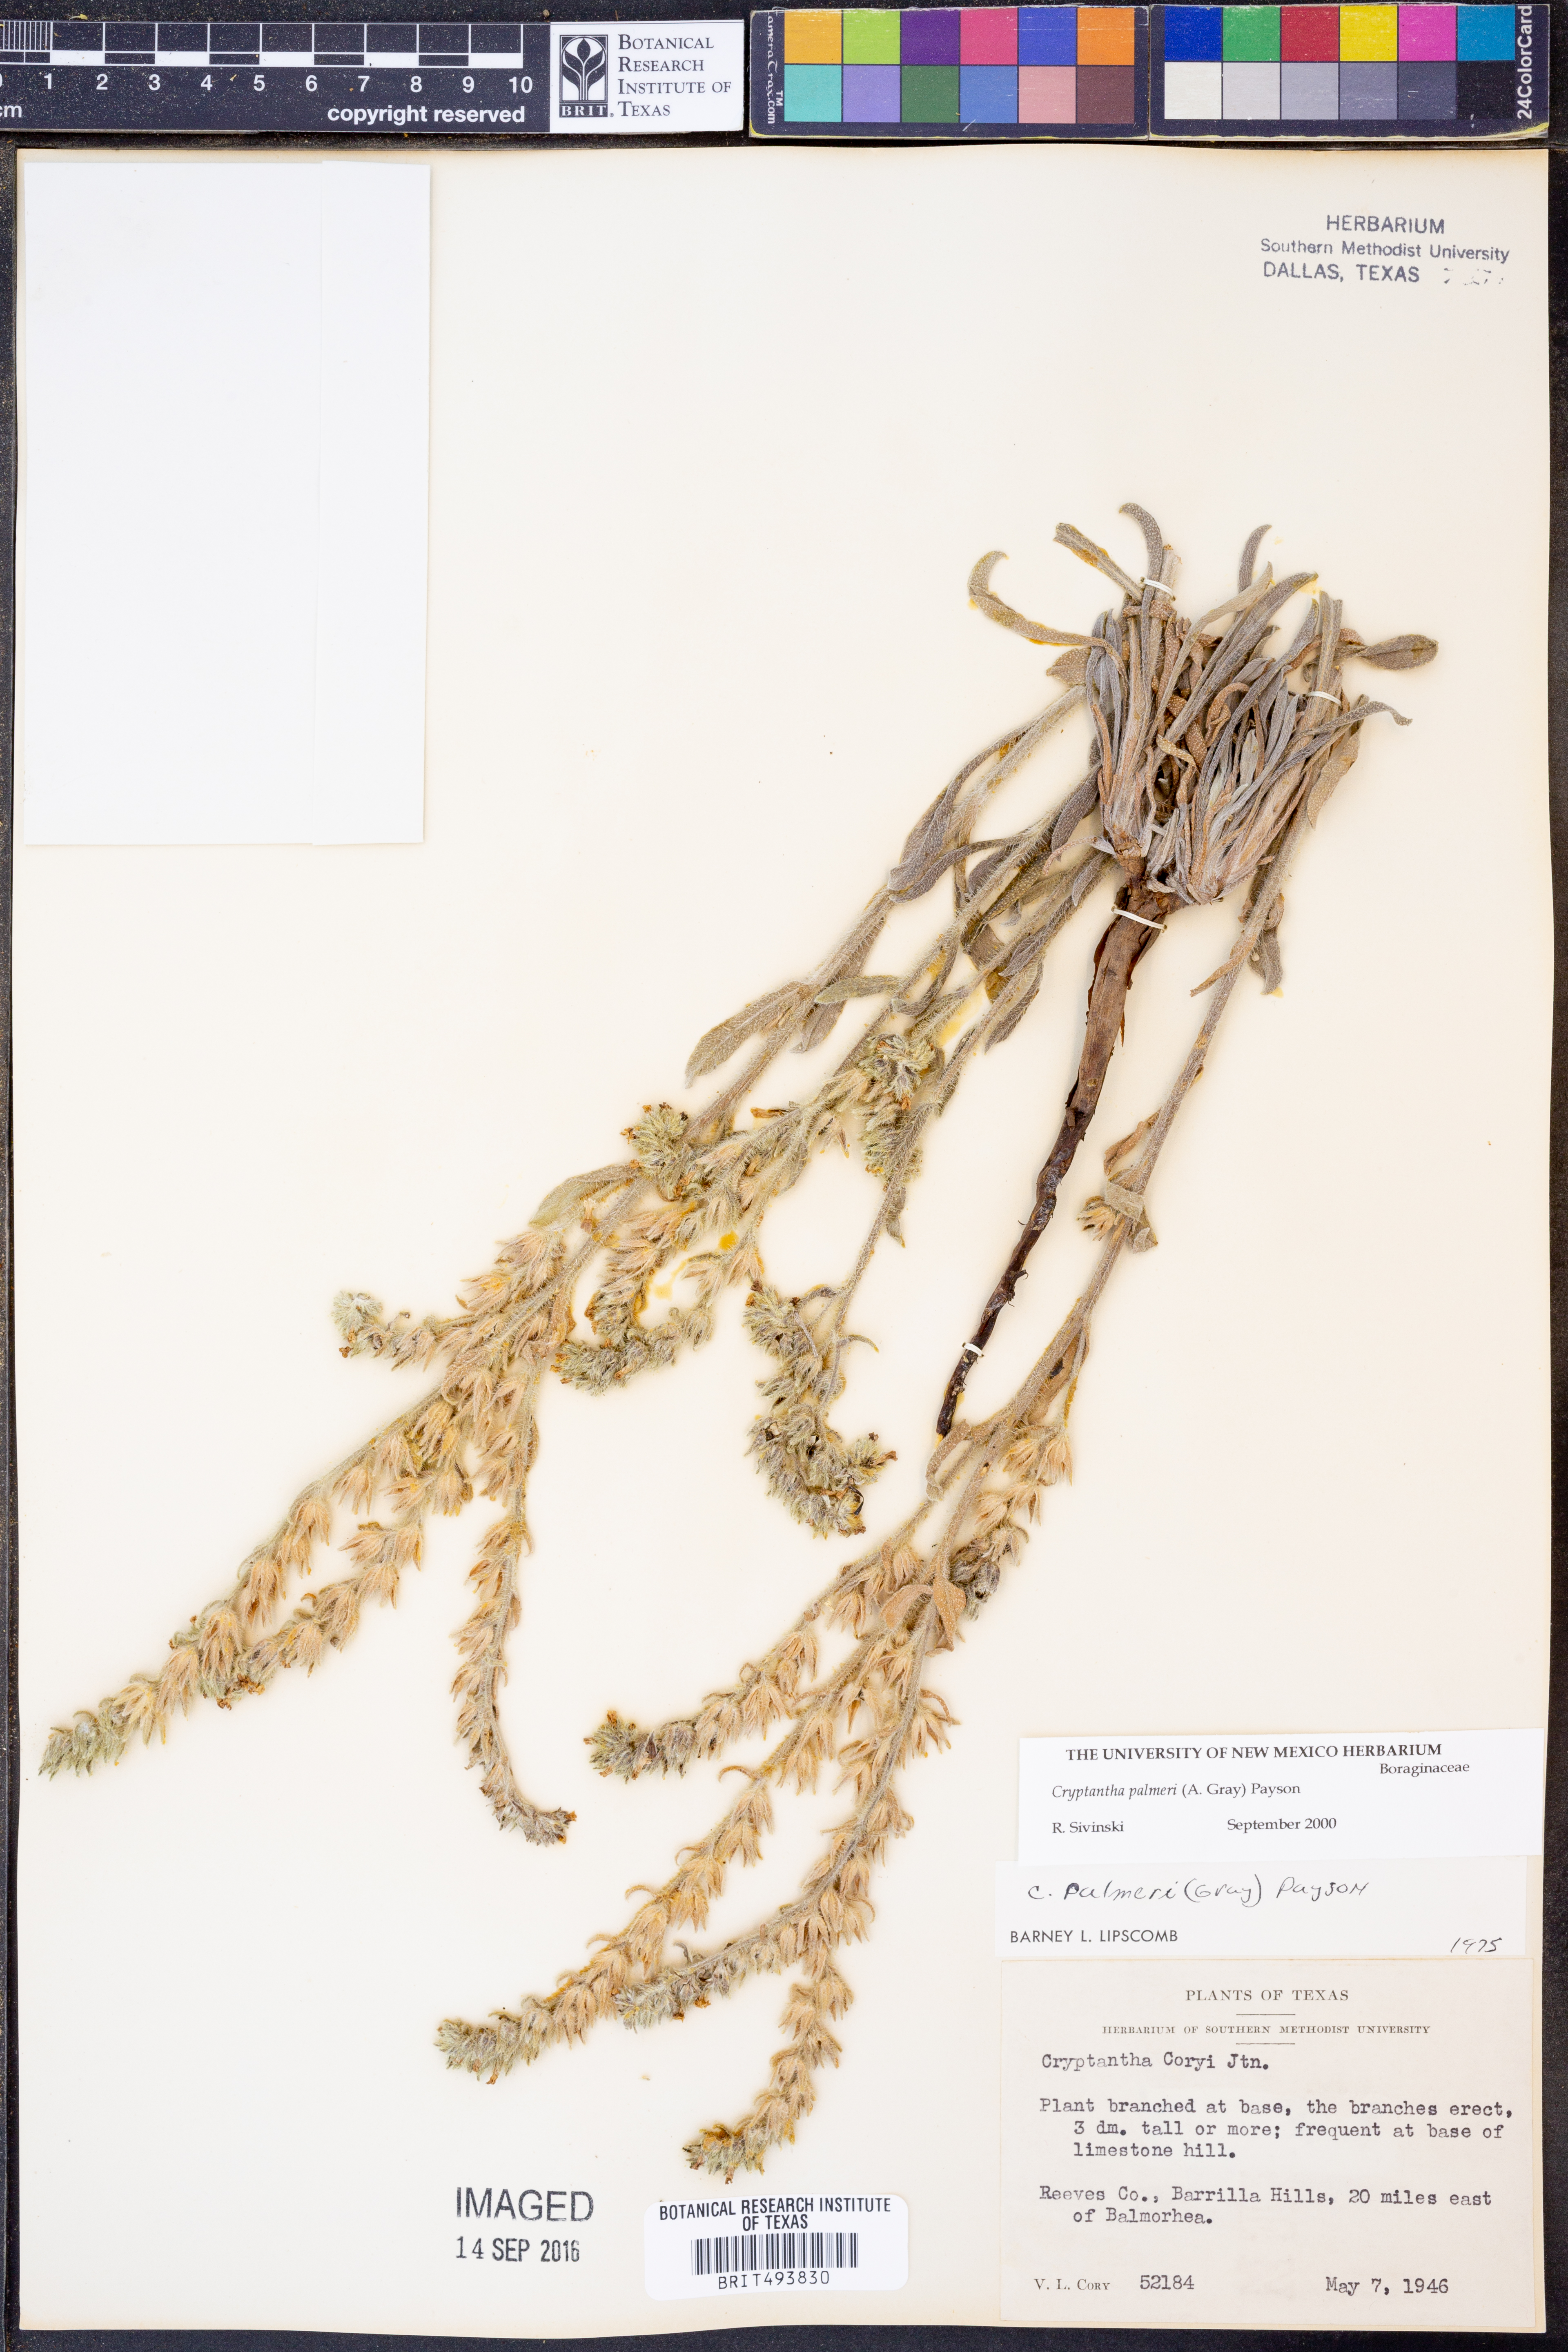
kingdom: Plantae
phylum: Tracheophyta
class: Magnoliopsida
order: Boraginales
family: Boraginaceae
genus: Oreocarya
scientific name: Oreocarya palmeri
